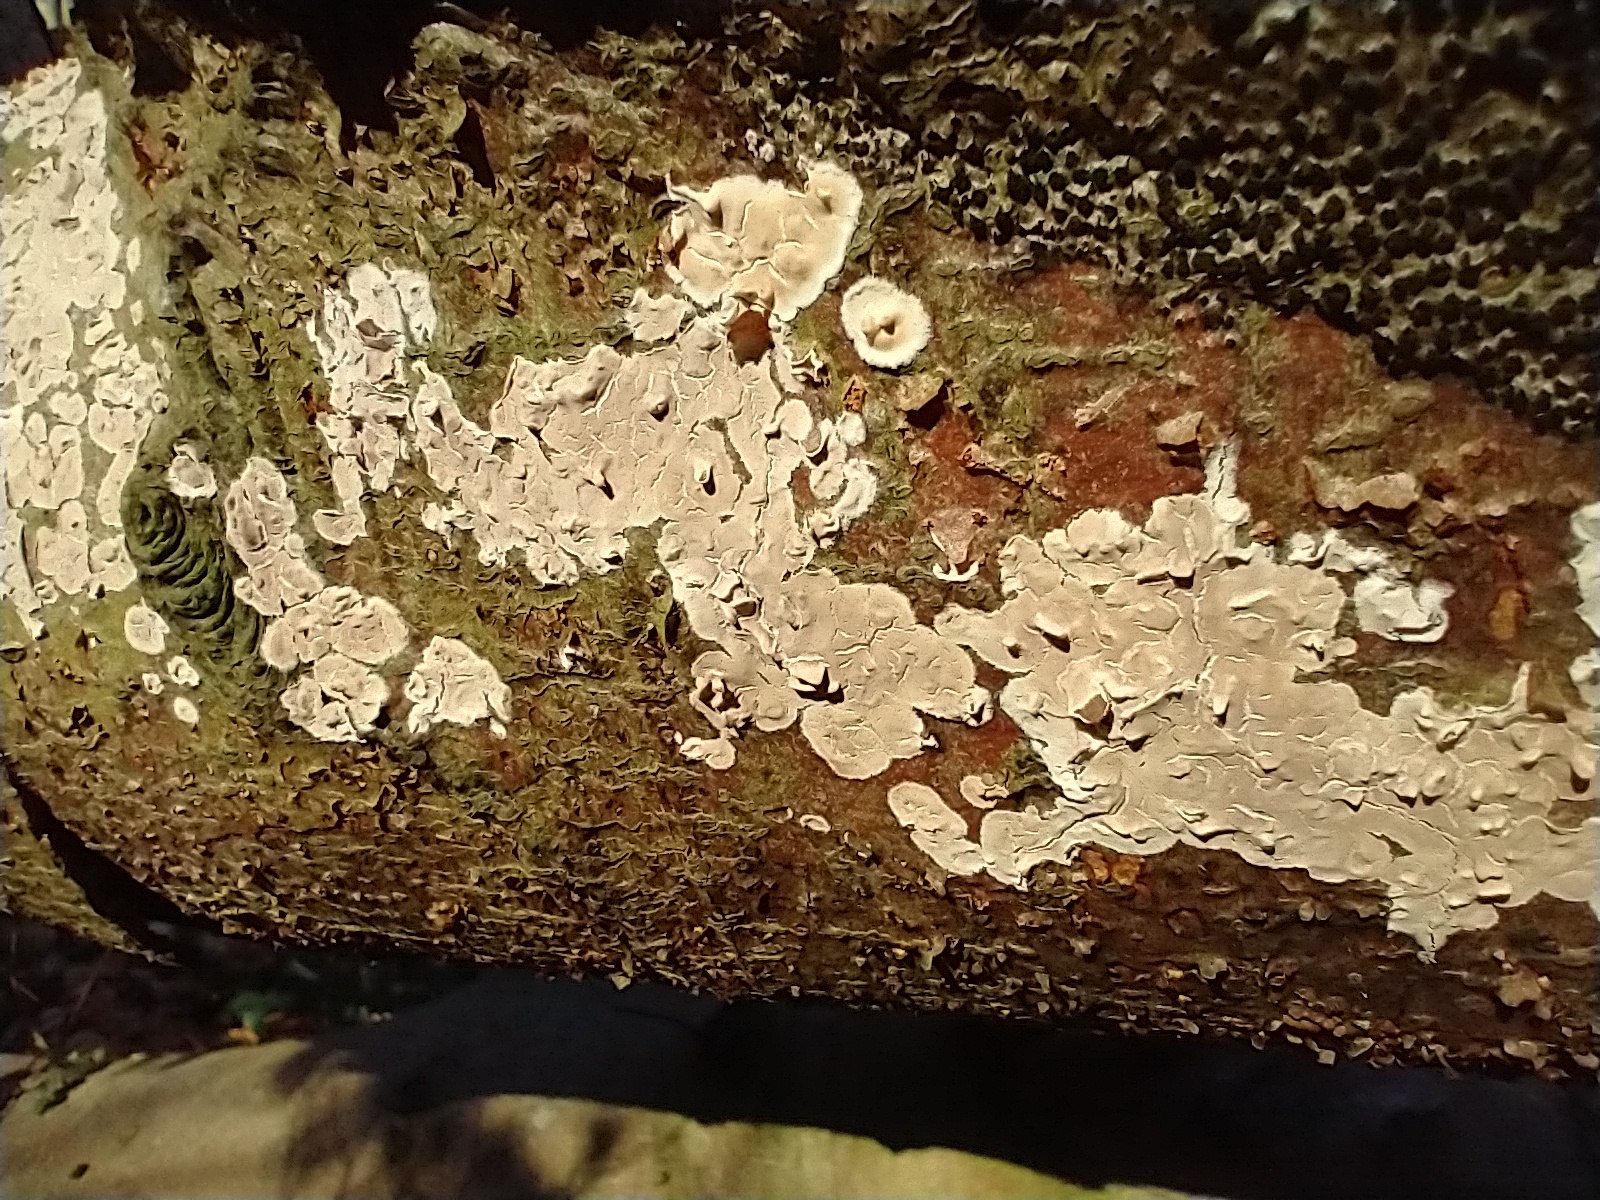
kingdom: Fungi
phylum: Basidiomycota
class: Agaricomycetes
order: Agaricales
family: Physalacriaceae
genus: Cylindrobasidium
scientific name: Cylindrobasidium evolvens
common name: sprækkehinde
